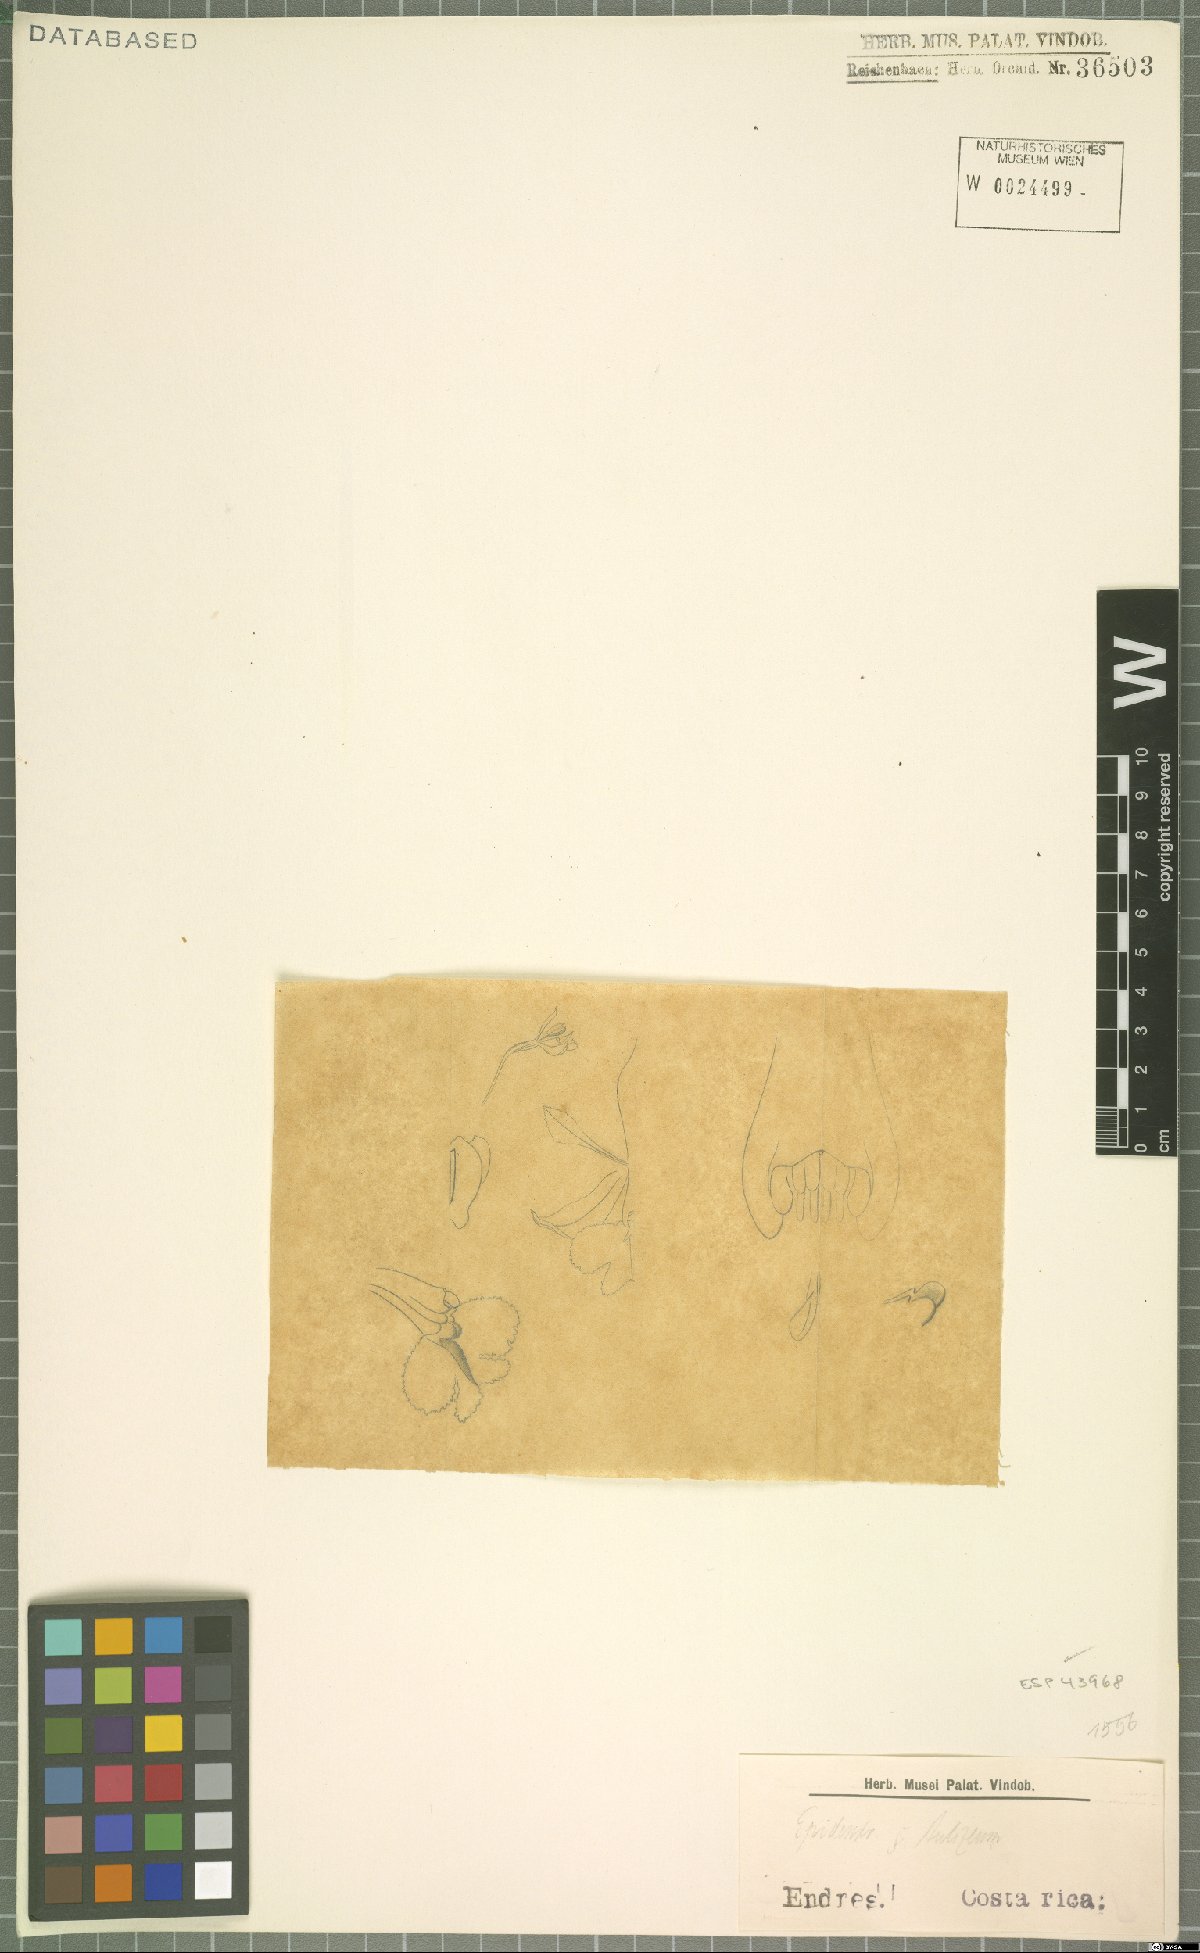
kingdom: Plantae
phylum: Tracheophyta
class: Liliopsida
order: Asparagales
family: Orchidaceae
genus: Epidendrum
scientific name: Epidendrum
